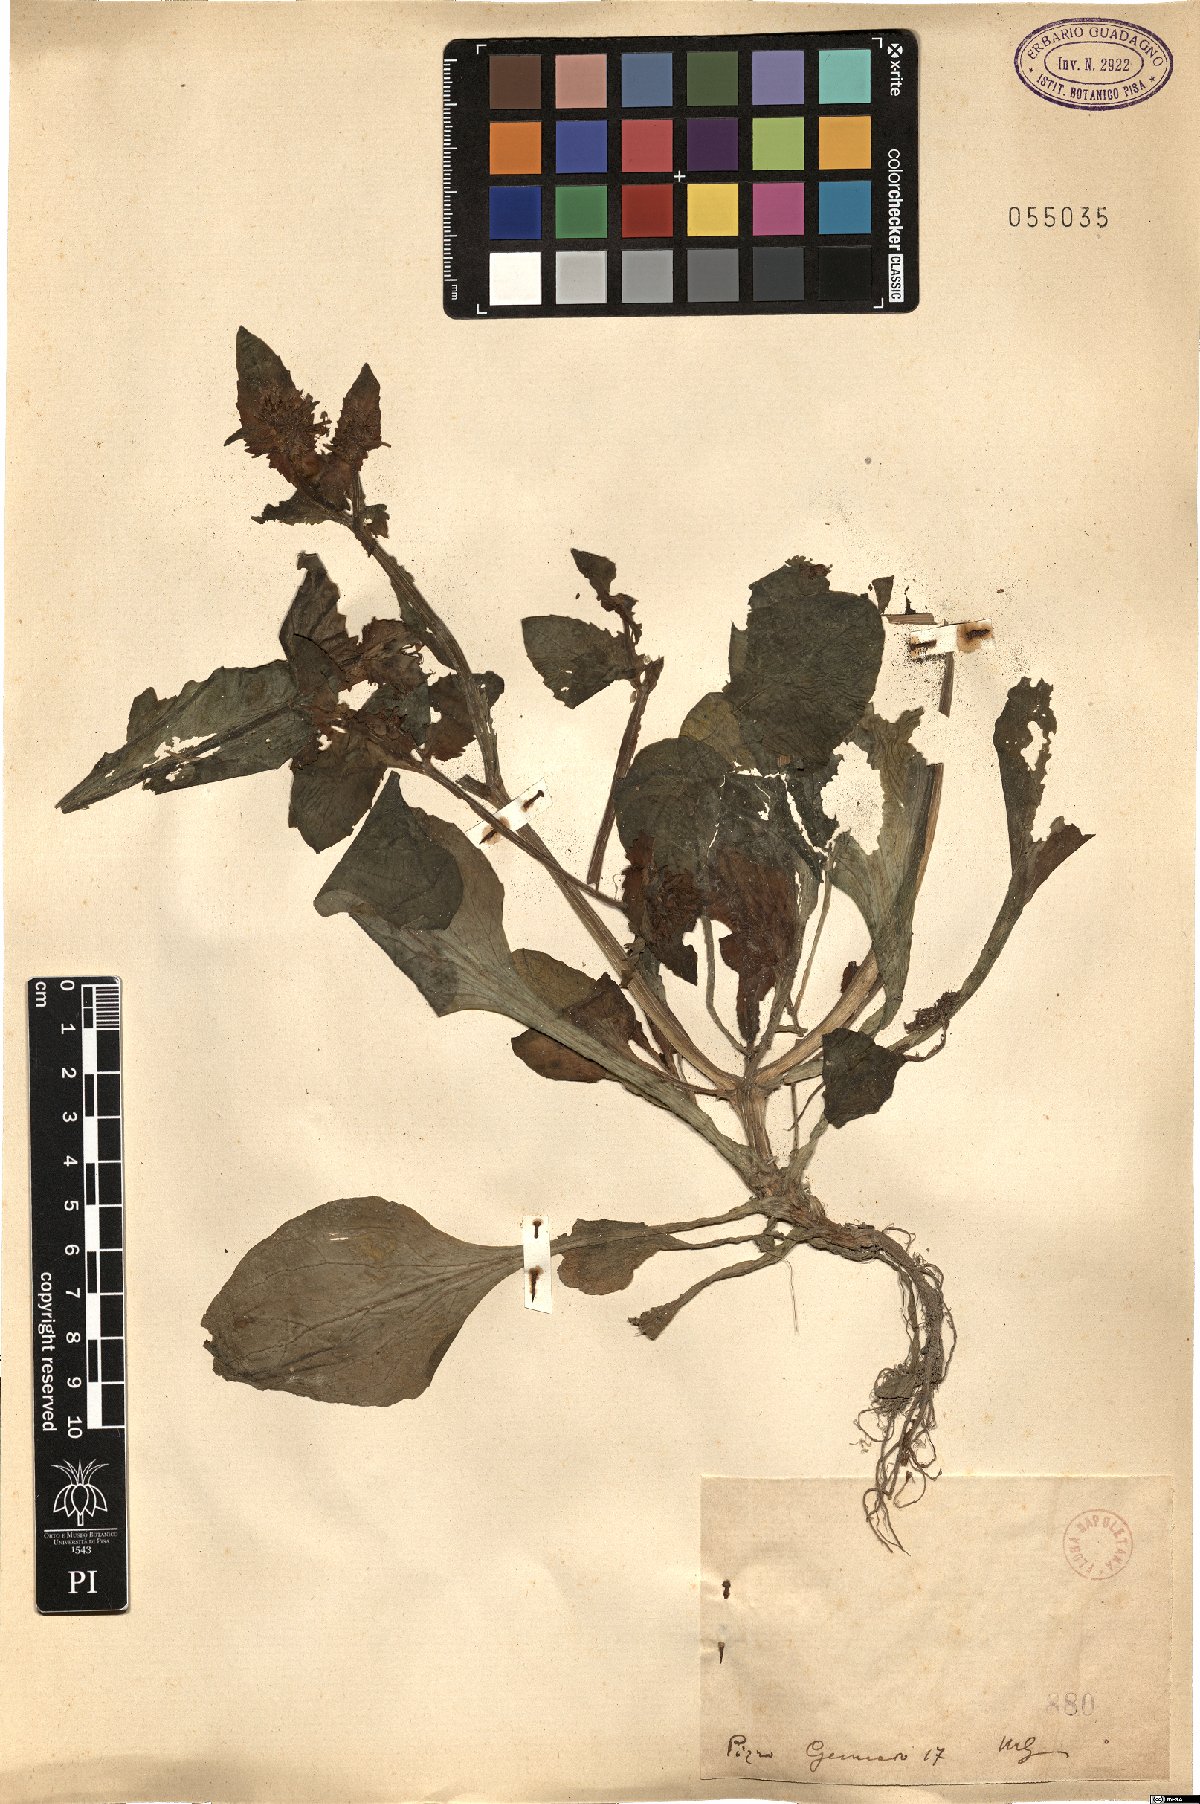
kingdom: Plantae
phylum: Tracheophyta
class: Magnoliopsida
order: Dipsacales
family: Caprifoliaceae
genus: Fedia
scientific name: Fedia
